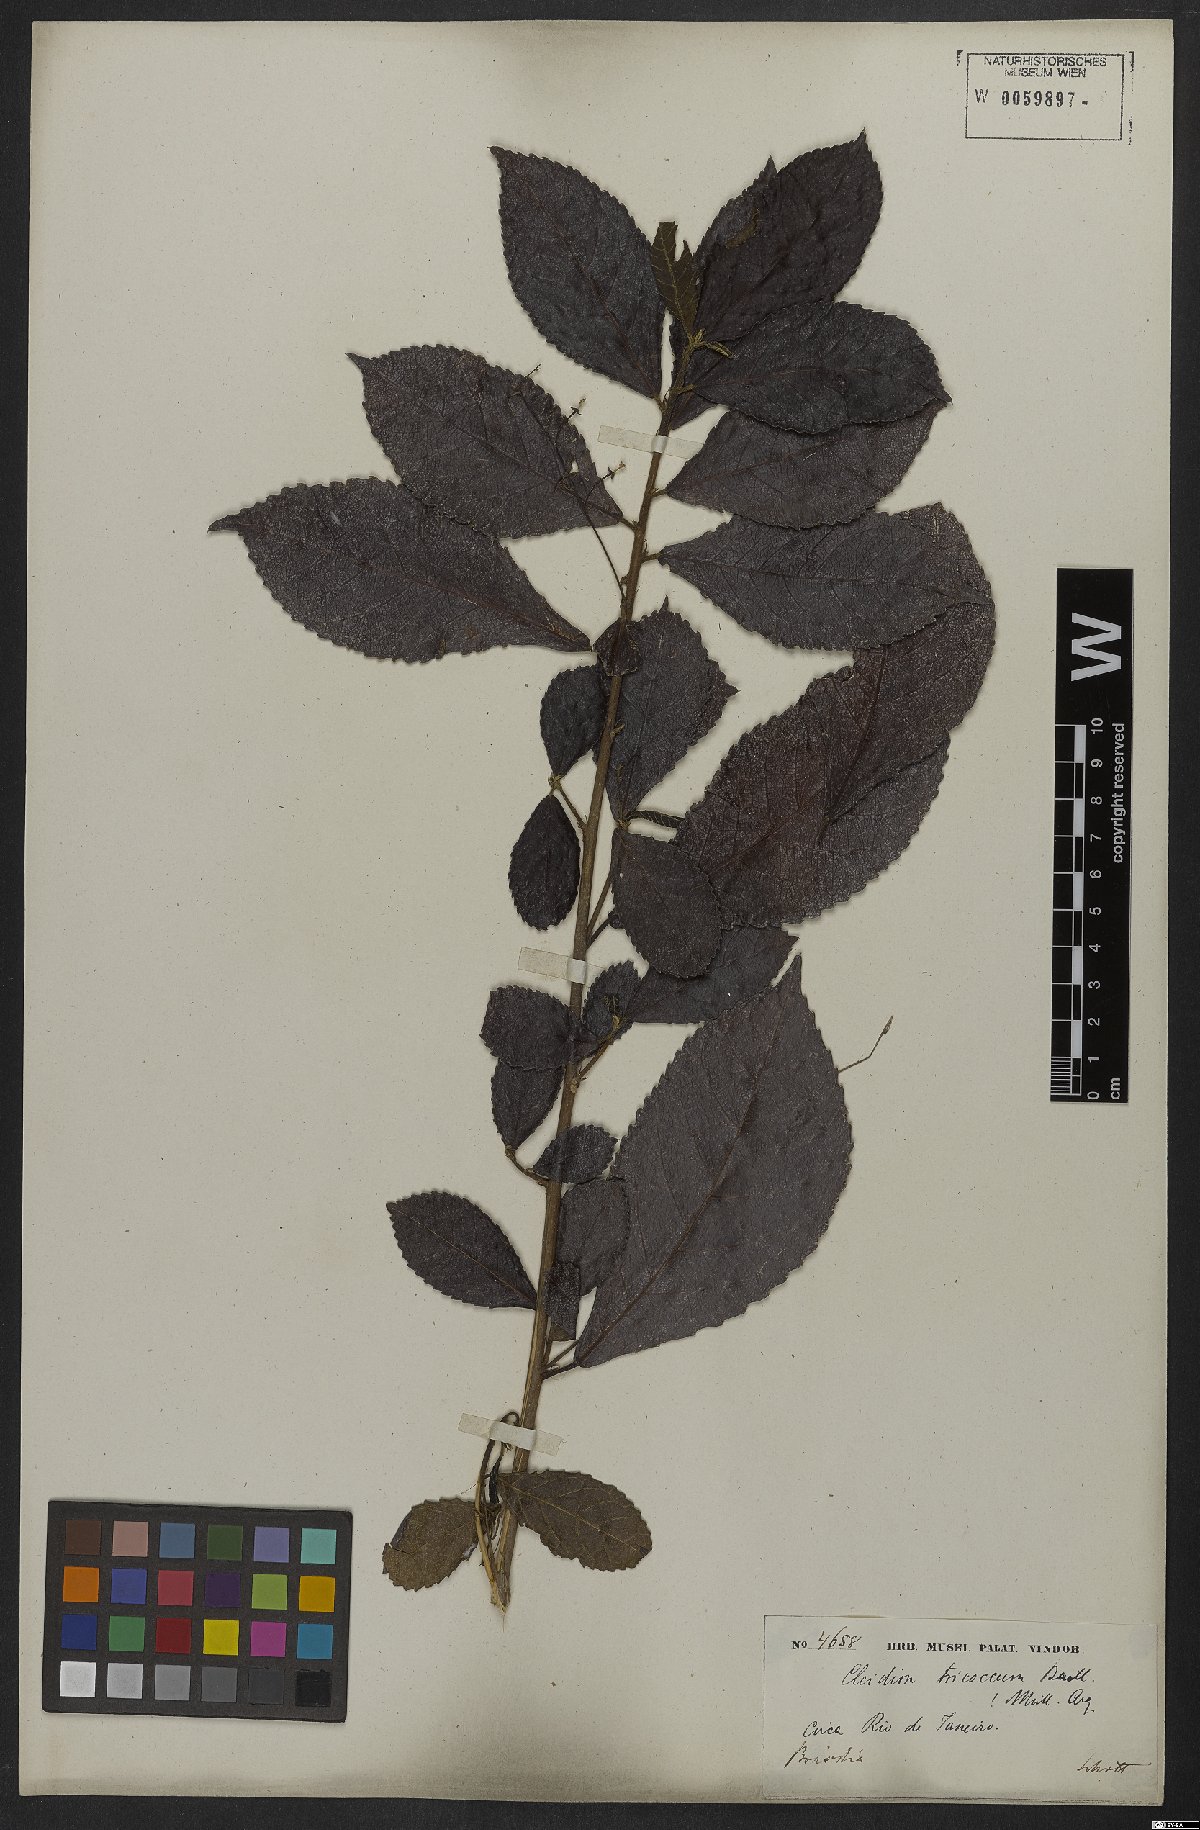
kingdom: Plantae
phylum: Tracheophyta
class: Magnoliopsida
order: Malpighiales
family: Euphorbiaceae
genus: Cleidion
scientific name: Cleidion tricoccum
